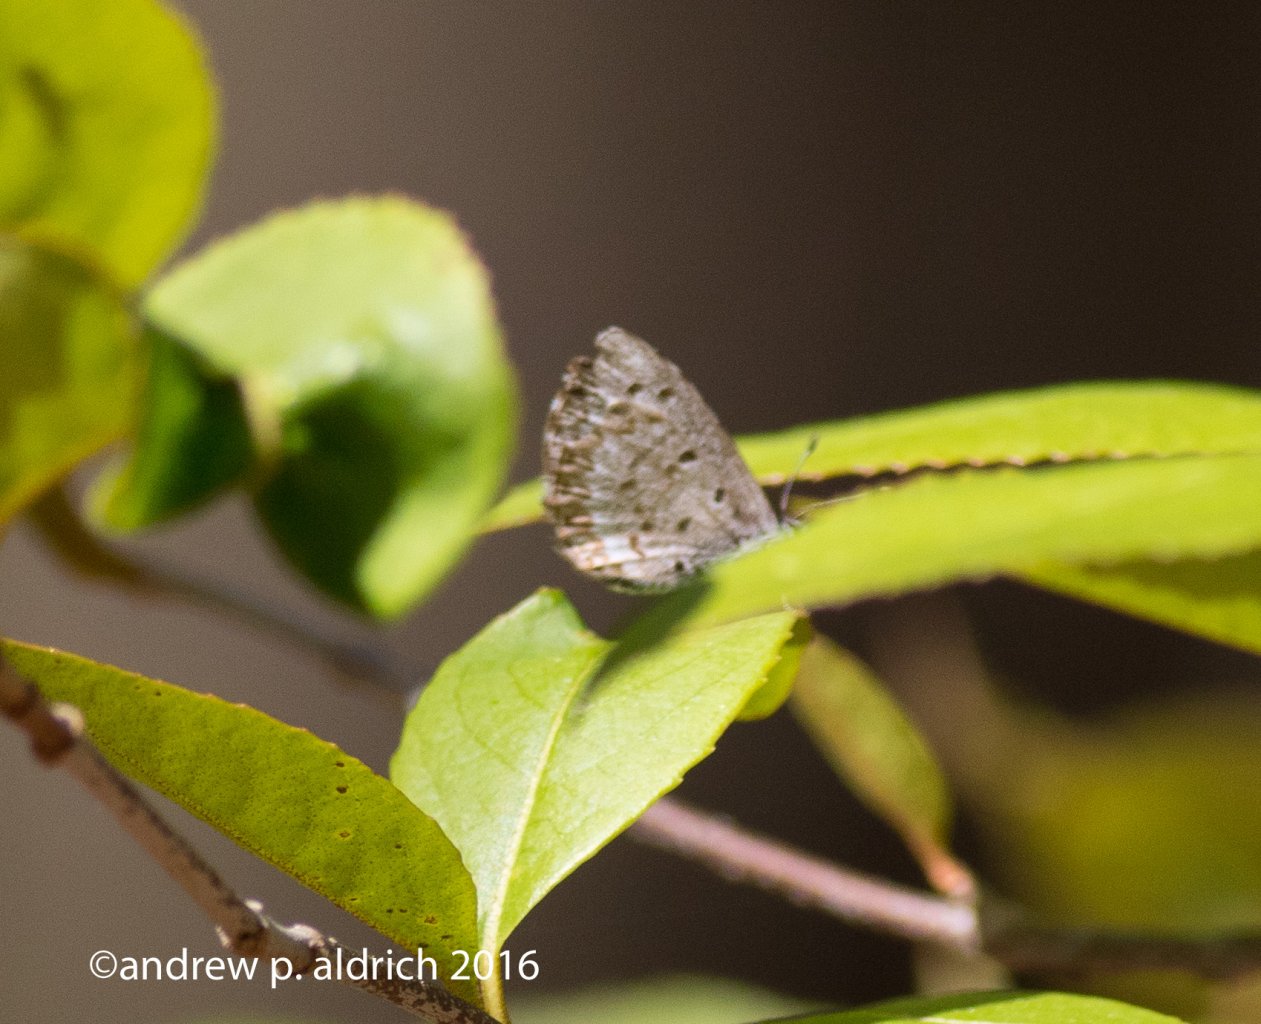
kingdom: Animalia
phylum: Arthropoda
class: Insecta
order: Lepidoptera
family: Lycaenidae
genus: Celastrina
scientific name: Celastrina
